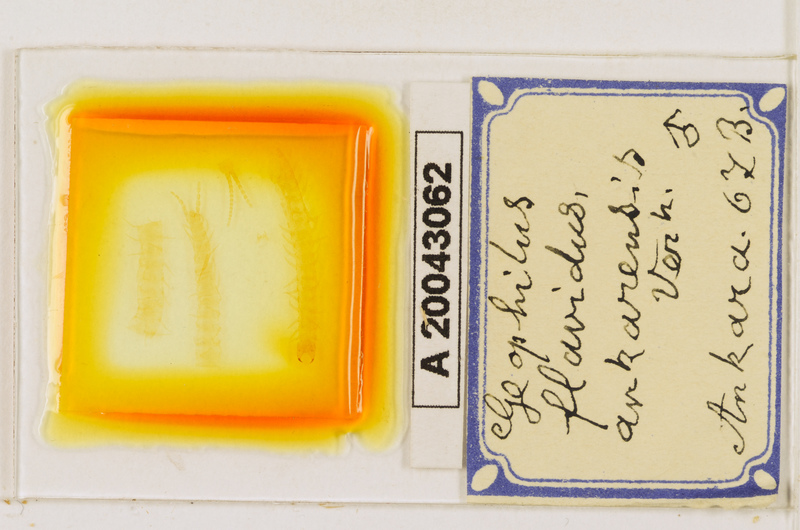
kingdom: Animalia
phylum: Arthropoda
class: Chilopoda
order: Geophilomorpha
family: Geophilidae
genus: Clinopodes
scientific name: Clinopodes flavidus
